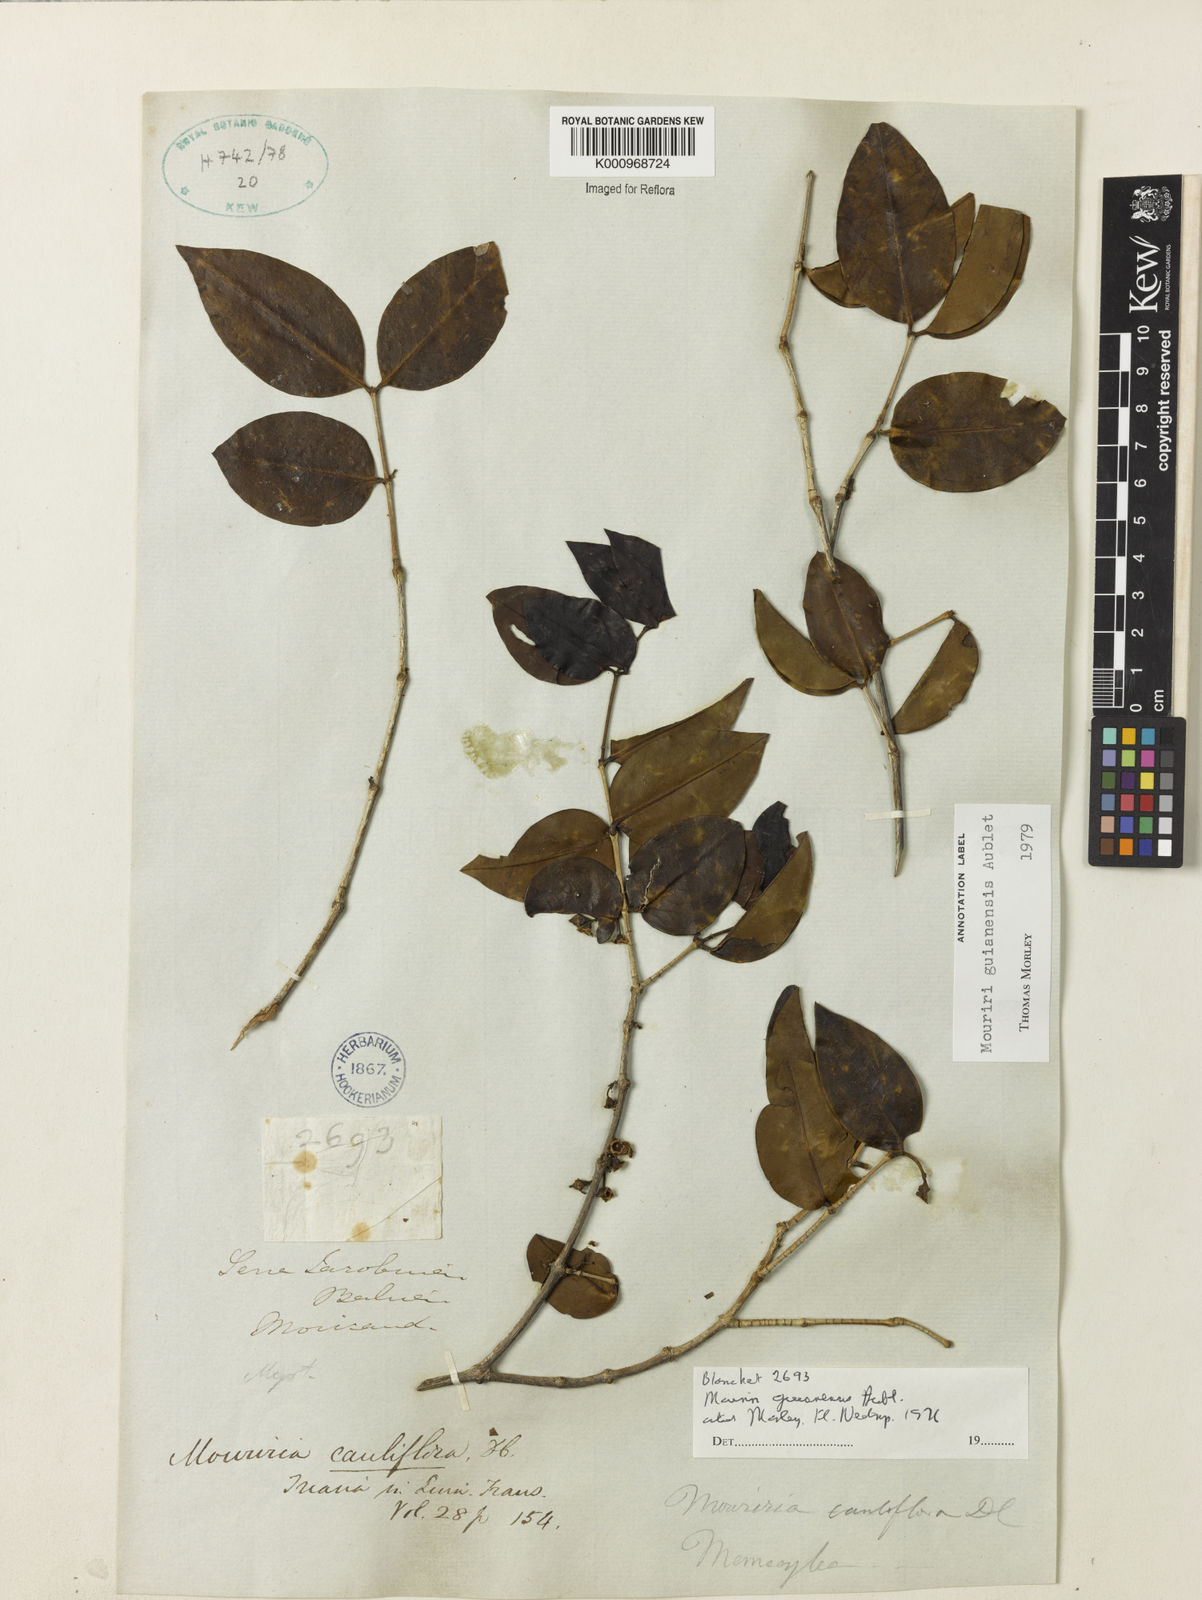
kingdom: Plantae
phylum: Tracheophyta
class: Magnoliopsida
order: Myrtales
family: Melastomataceae
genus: Mouriri
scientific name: Mouriri guianensis
